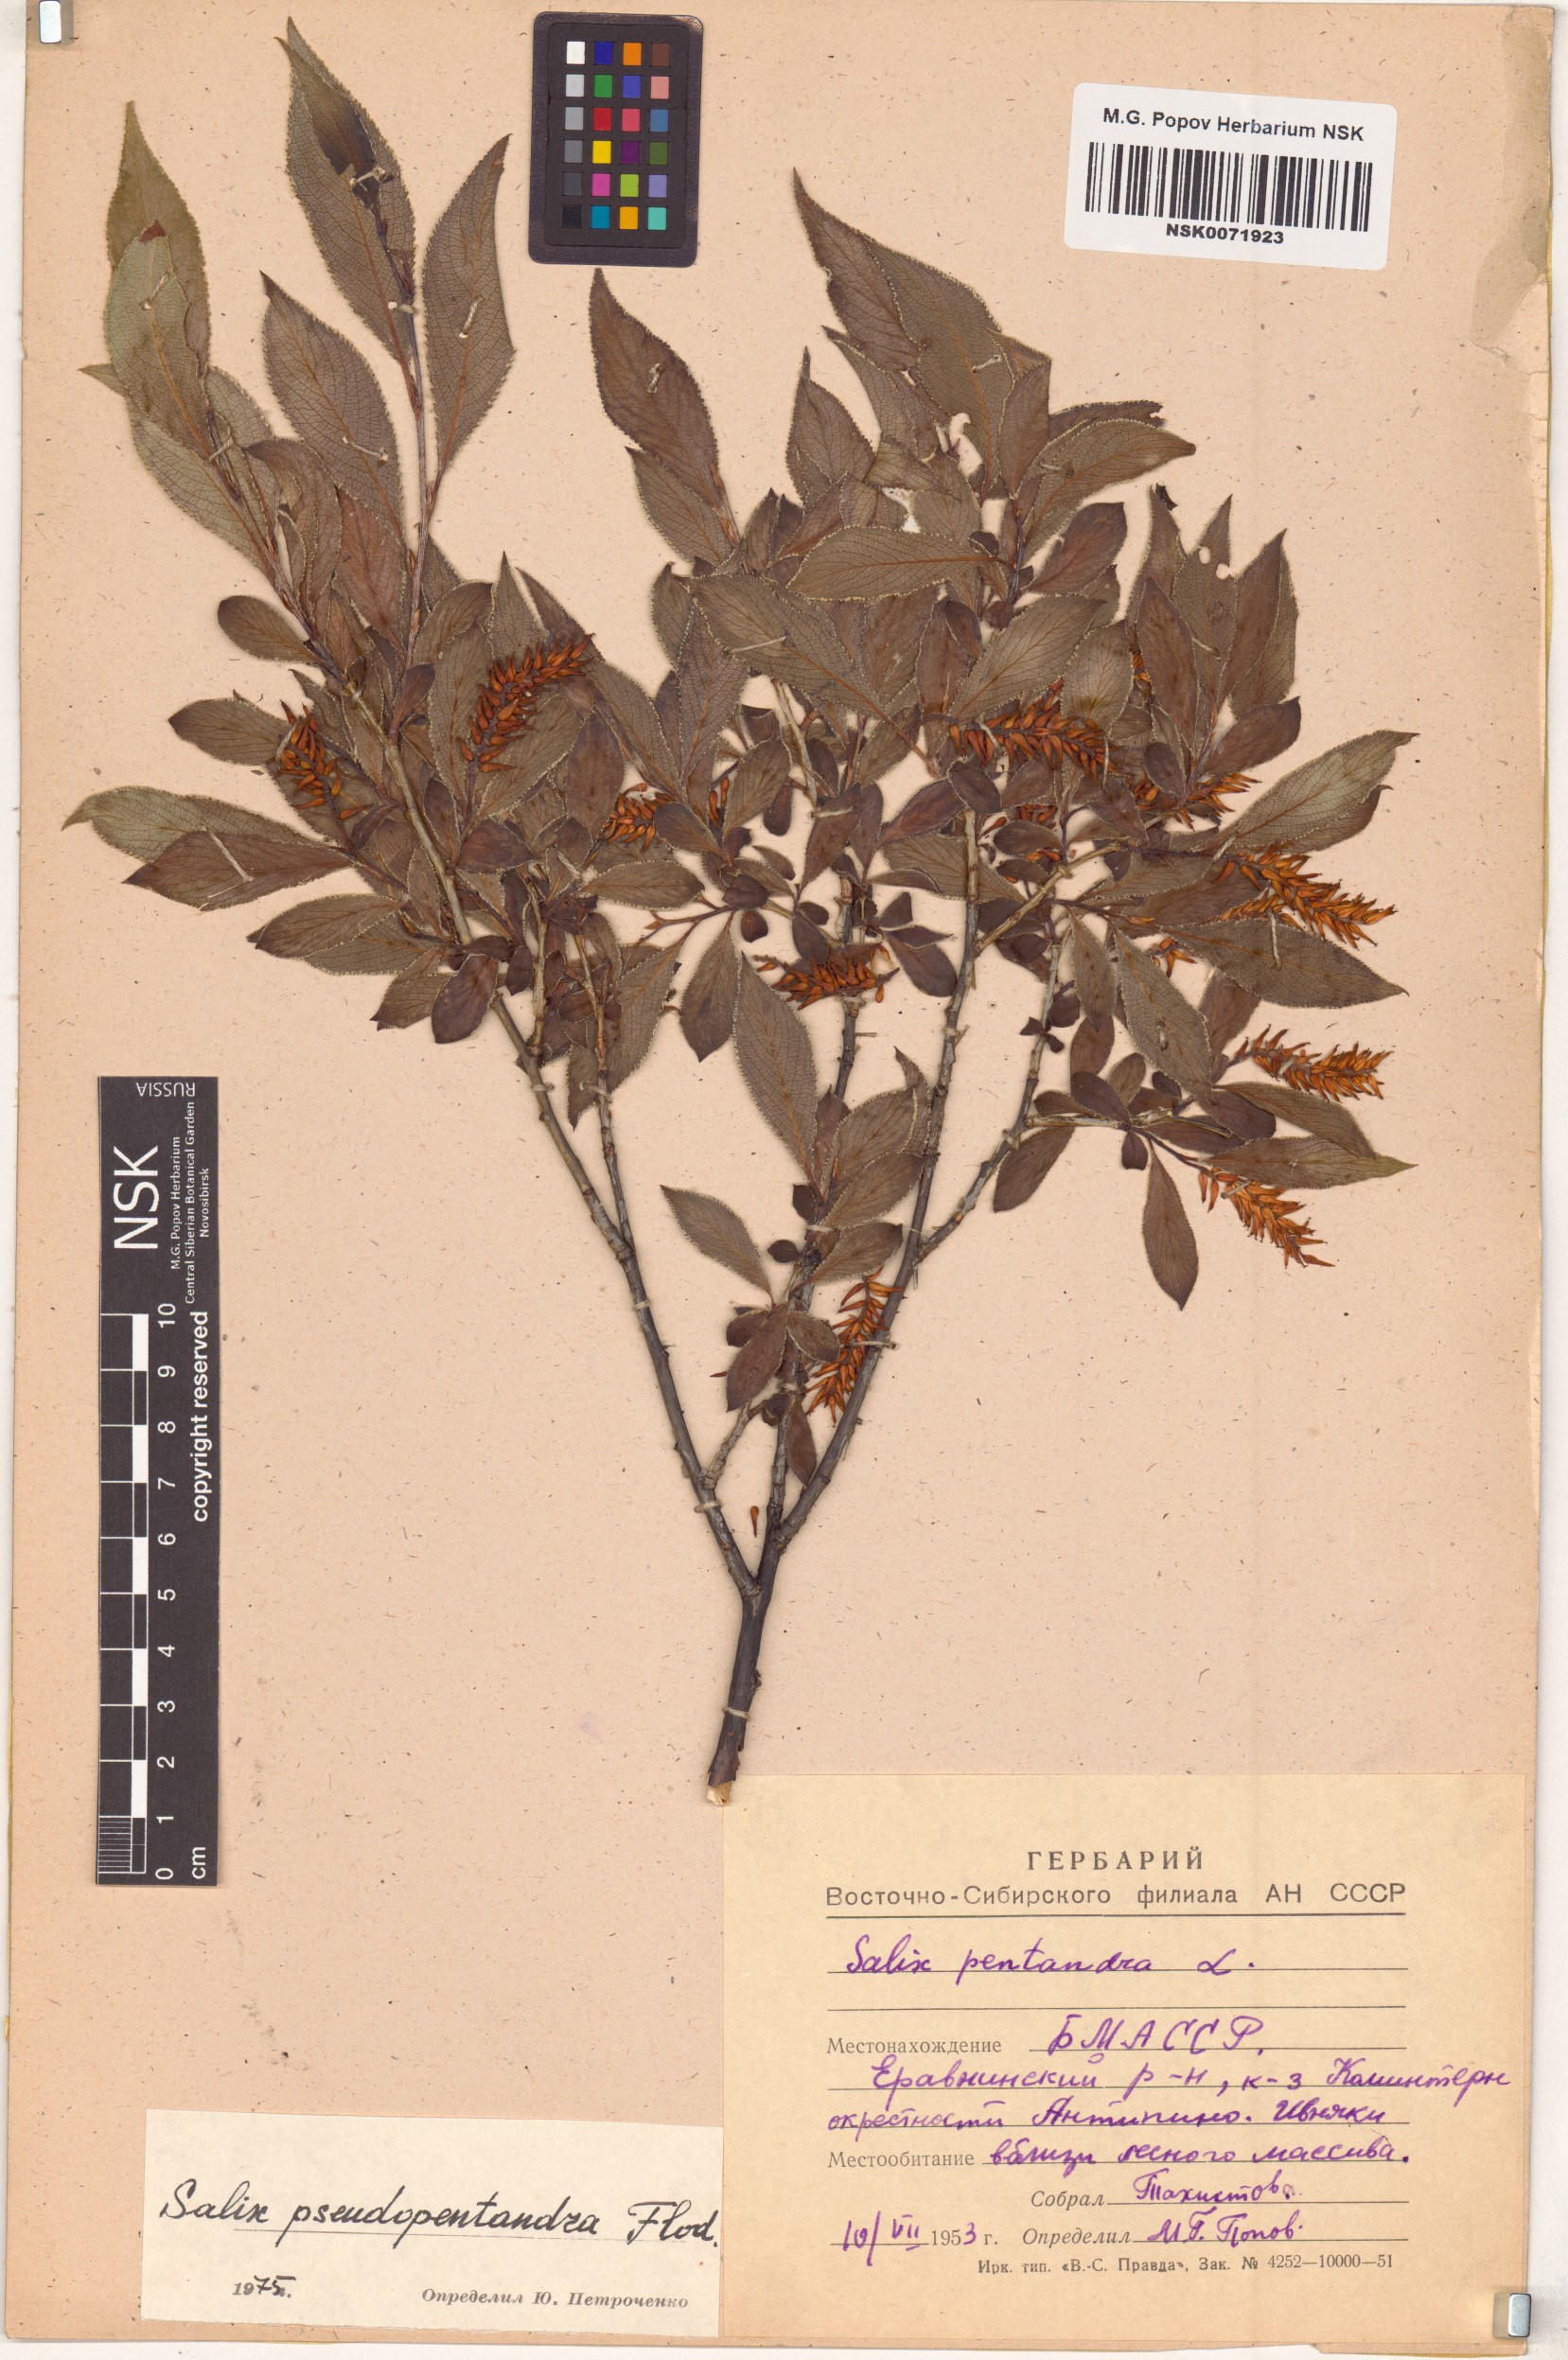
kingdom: Plantae
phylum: Tracheophyta
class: Magnoliopsida
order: Malpighiales
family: Salicaceae
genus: Salix
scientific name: Salix pseudopentandra
